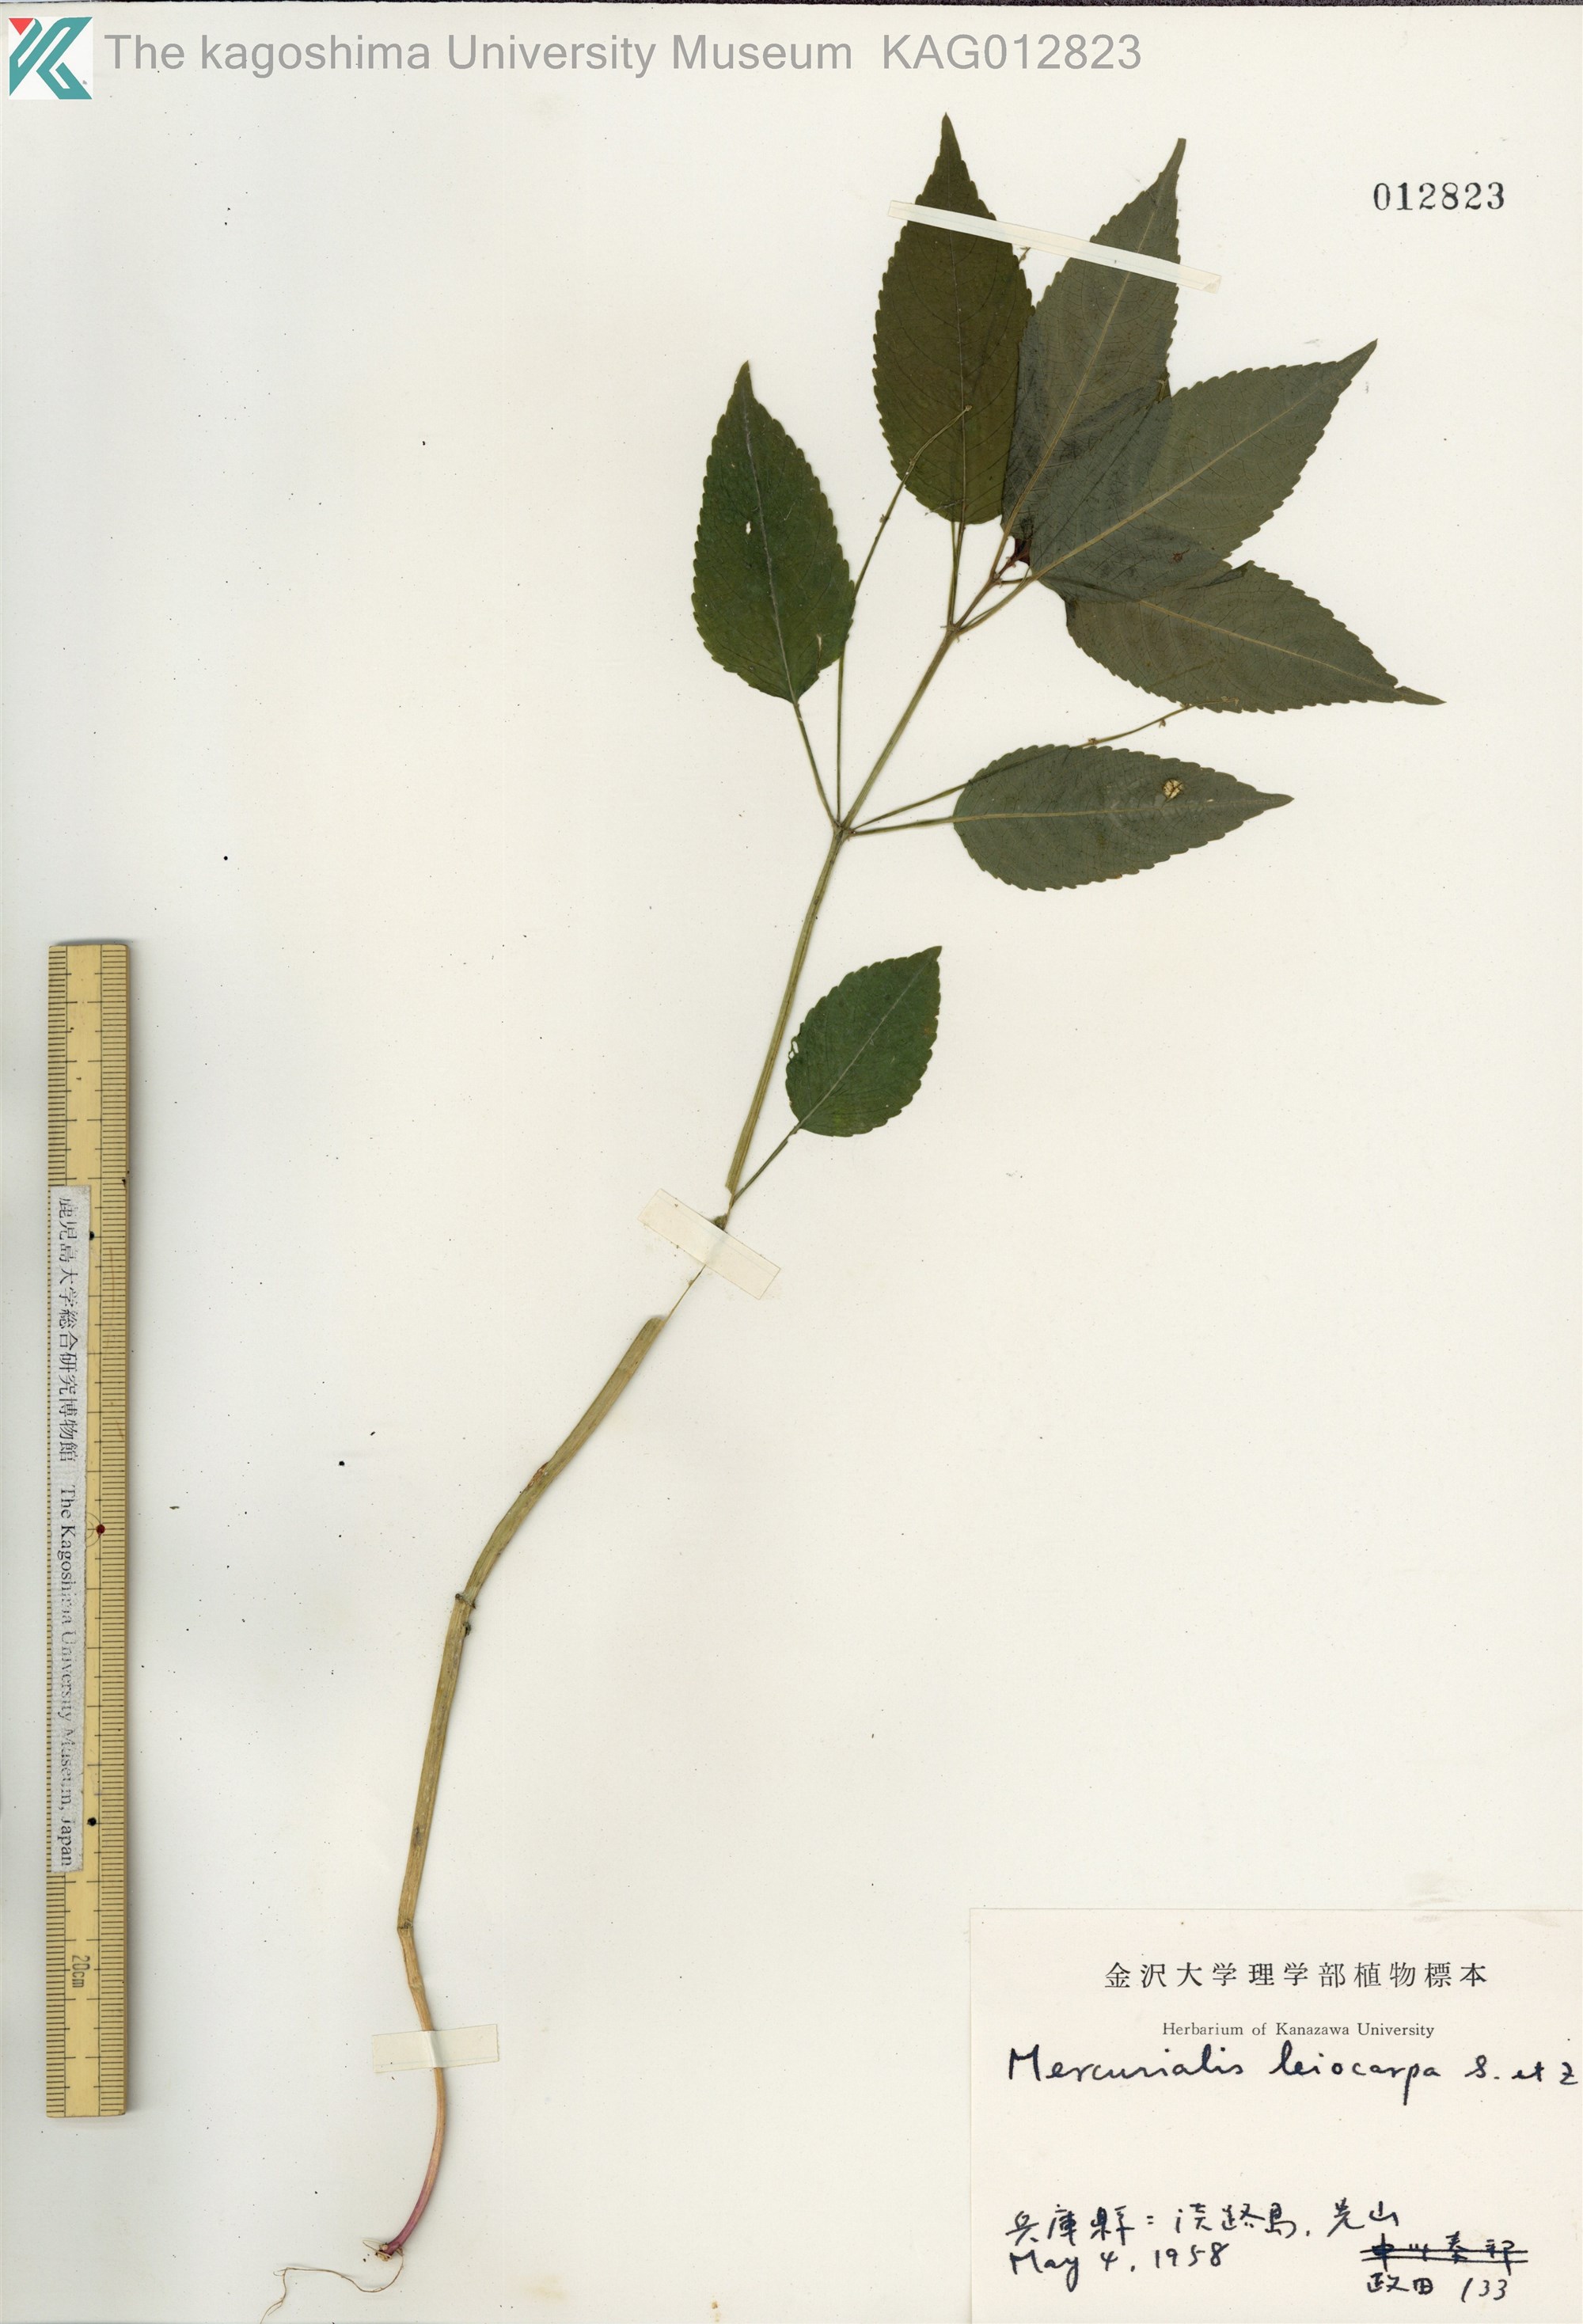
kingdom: Plantae
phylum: Tracheophyta
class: Magnoliopsida
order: Malpighiales
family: Euphorbiaceae
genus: Mercurialis
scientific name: Mercurialis leiocarpa
